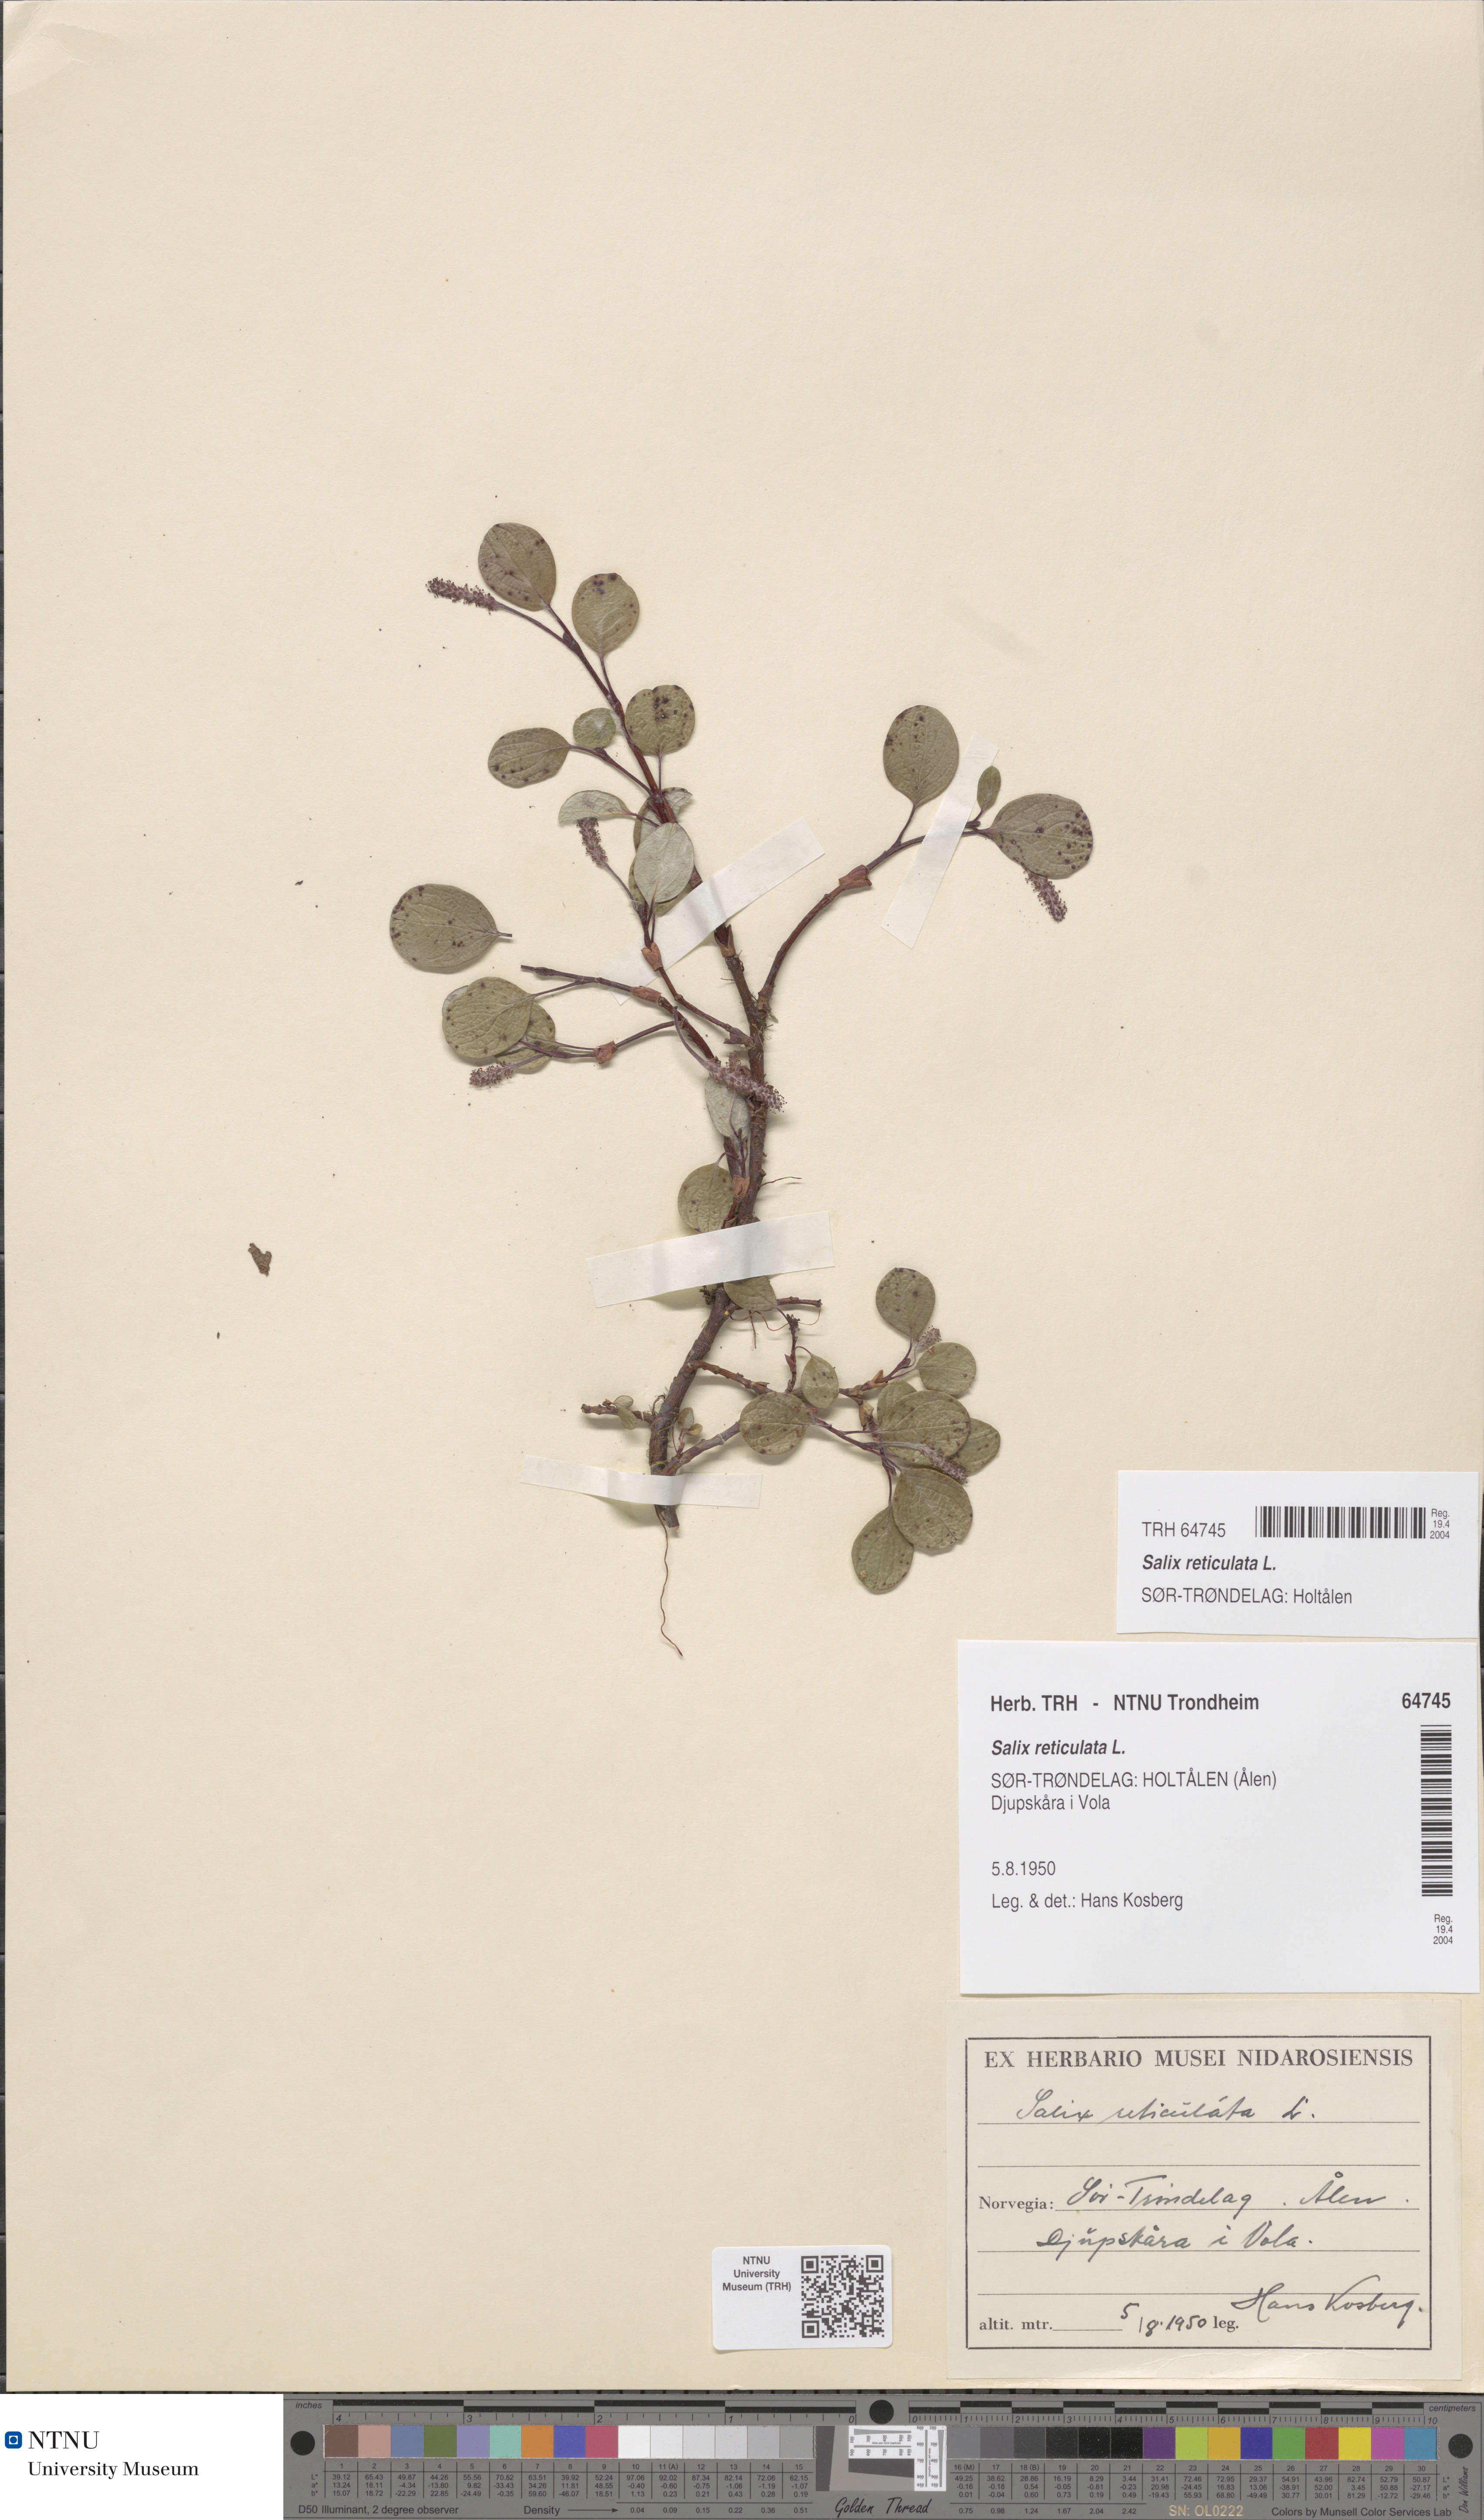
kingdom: Plantae
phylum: Tracheophyta
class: Magnoliopsida
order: Malpighiales
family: Salicaceae
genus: Salix
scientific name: Salix reticulata
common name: Net-leaved willow
